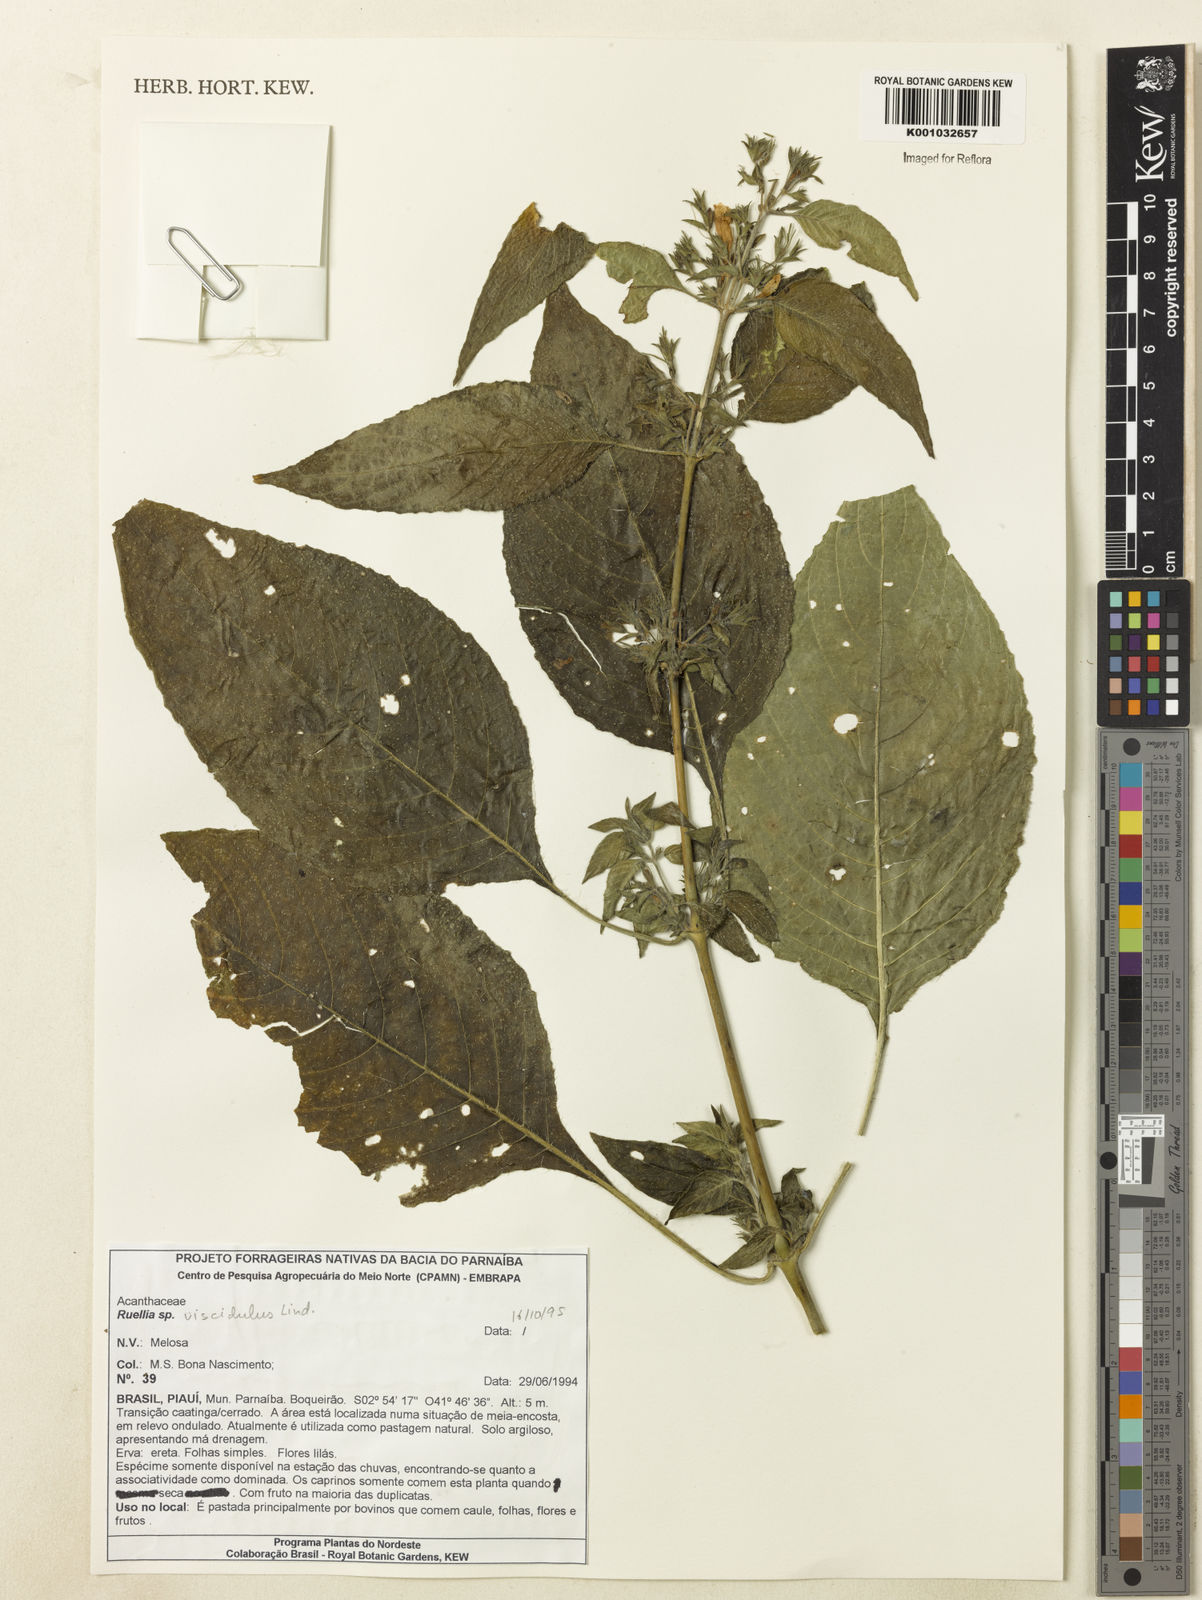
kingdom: Plantae
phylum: Tracheophyta
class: Magnoliopsida
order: Lamiales
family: Acanthaceae
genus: Ruellia
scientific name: Ruellia
